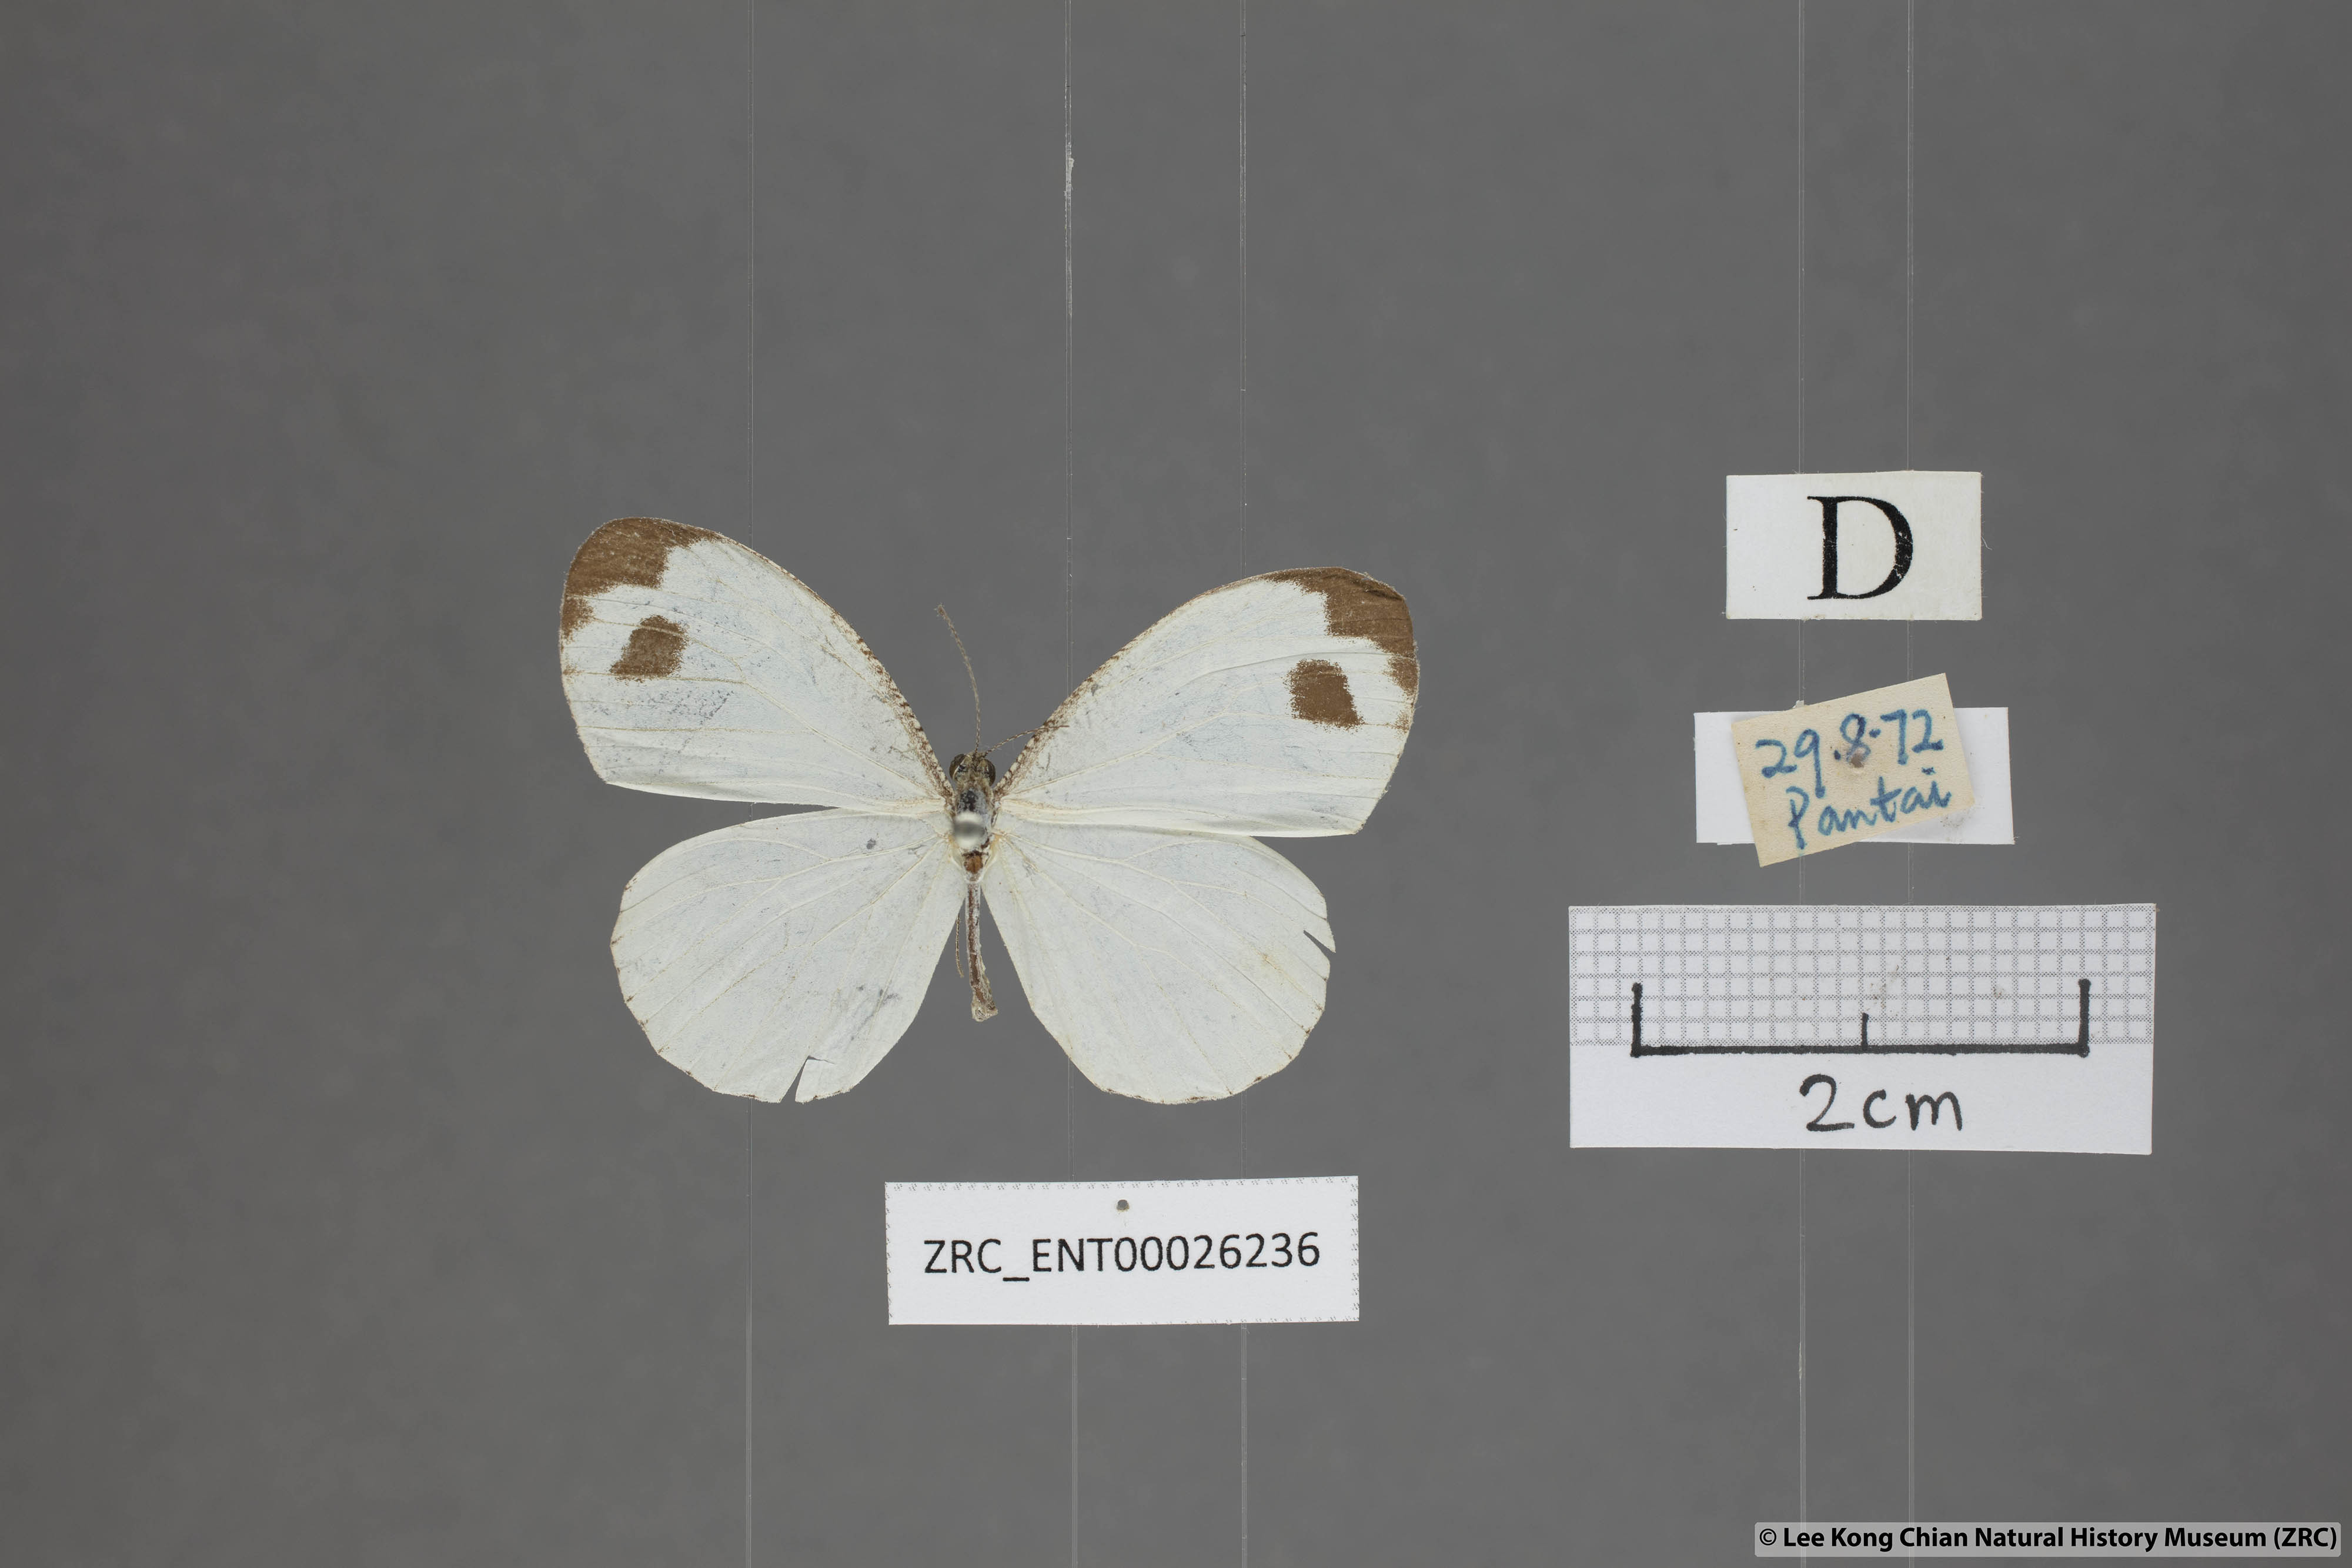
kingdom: Animalia
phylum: Arthropoda
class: Insecta
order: Lepidoptera
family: Pieridae
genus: Leptosia
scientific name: Leptosia nina
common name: Psyche
